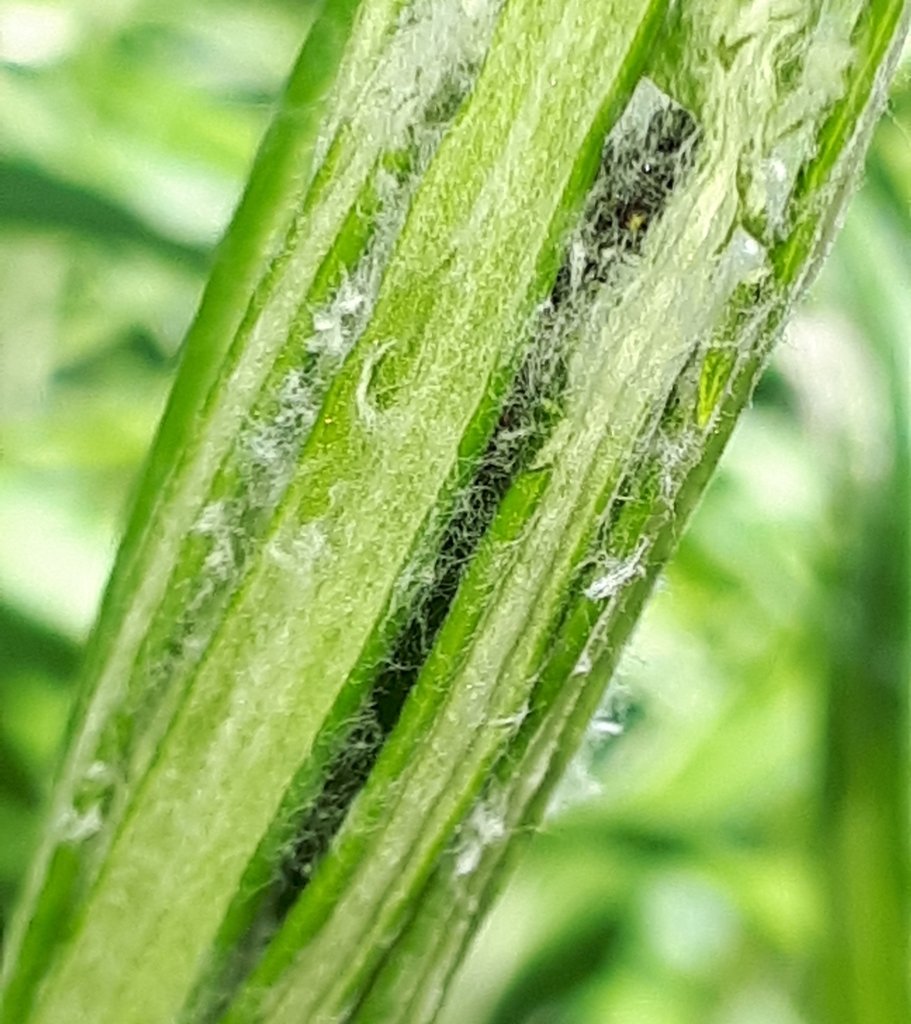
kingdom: Animalia
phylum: Arthropoda
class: Insecta
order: Lepidoptera
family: Nymphalidae
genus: Vanessa
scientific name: Vanessa virginiensis
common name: American Lady
